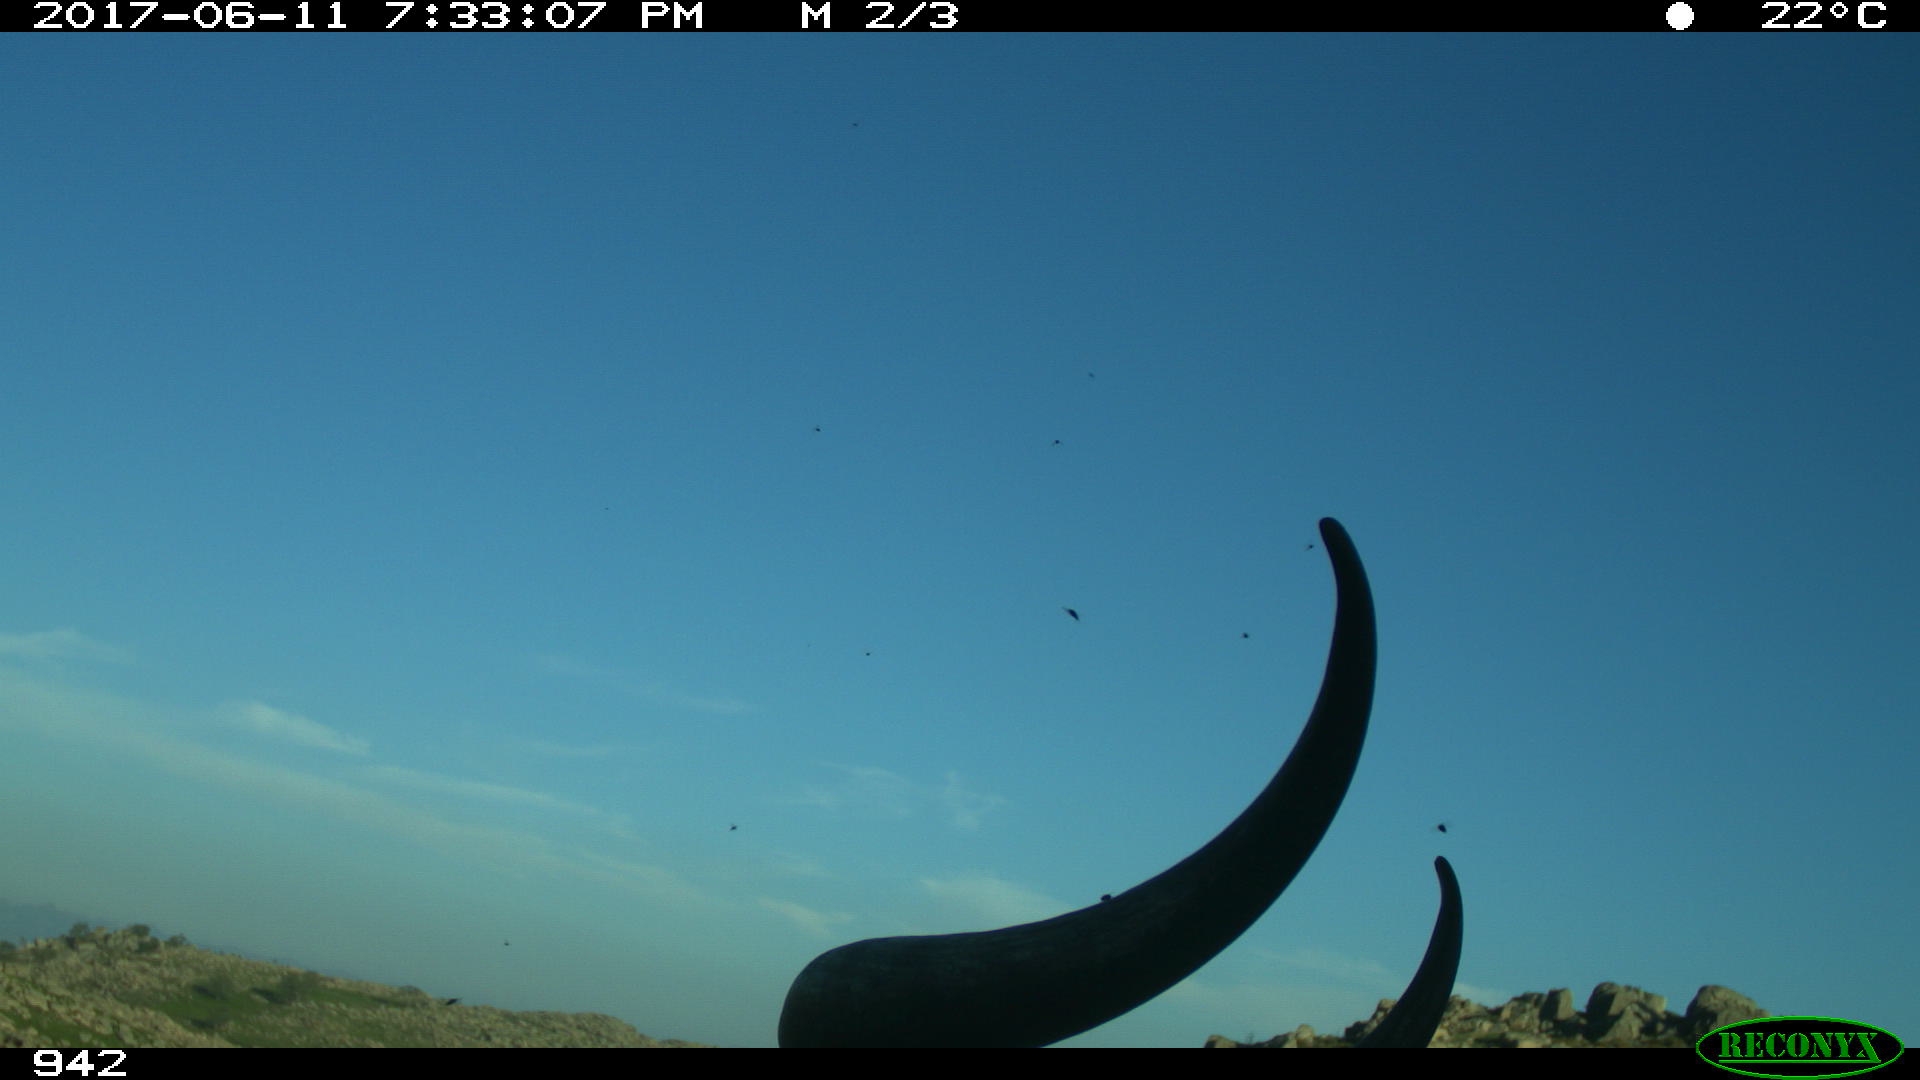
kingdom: Animalia
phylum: Chordata
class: Mammalia
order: Artiodactyla
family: Bovidae
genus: Bos
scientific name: Bos taurus
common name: Domesticated cattle
